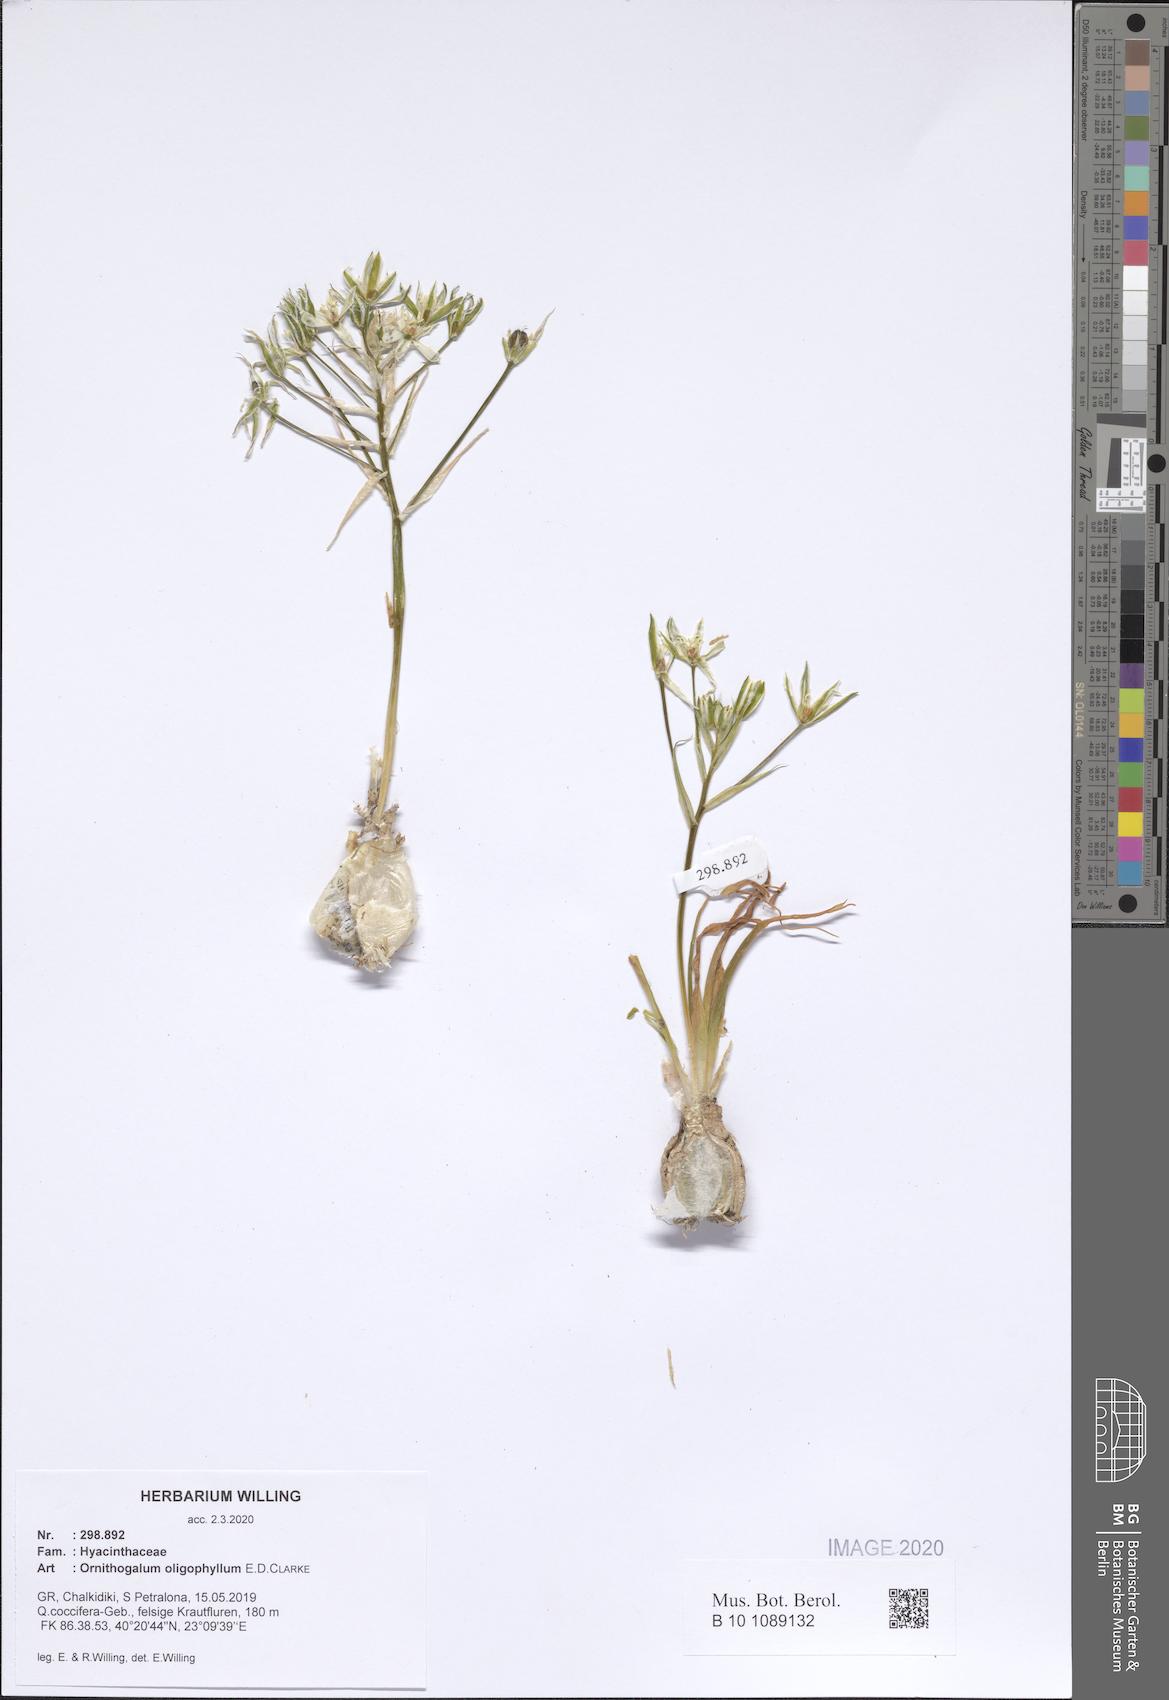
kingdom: Plantae
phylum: Tracheophyta
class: Liliopsida
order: Asparagales
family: Asparagaceae
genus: Ornithogalum
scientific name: Ornithogalum oligophyllum
